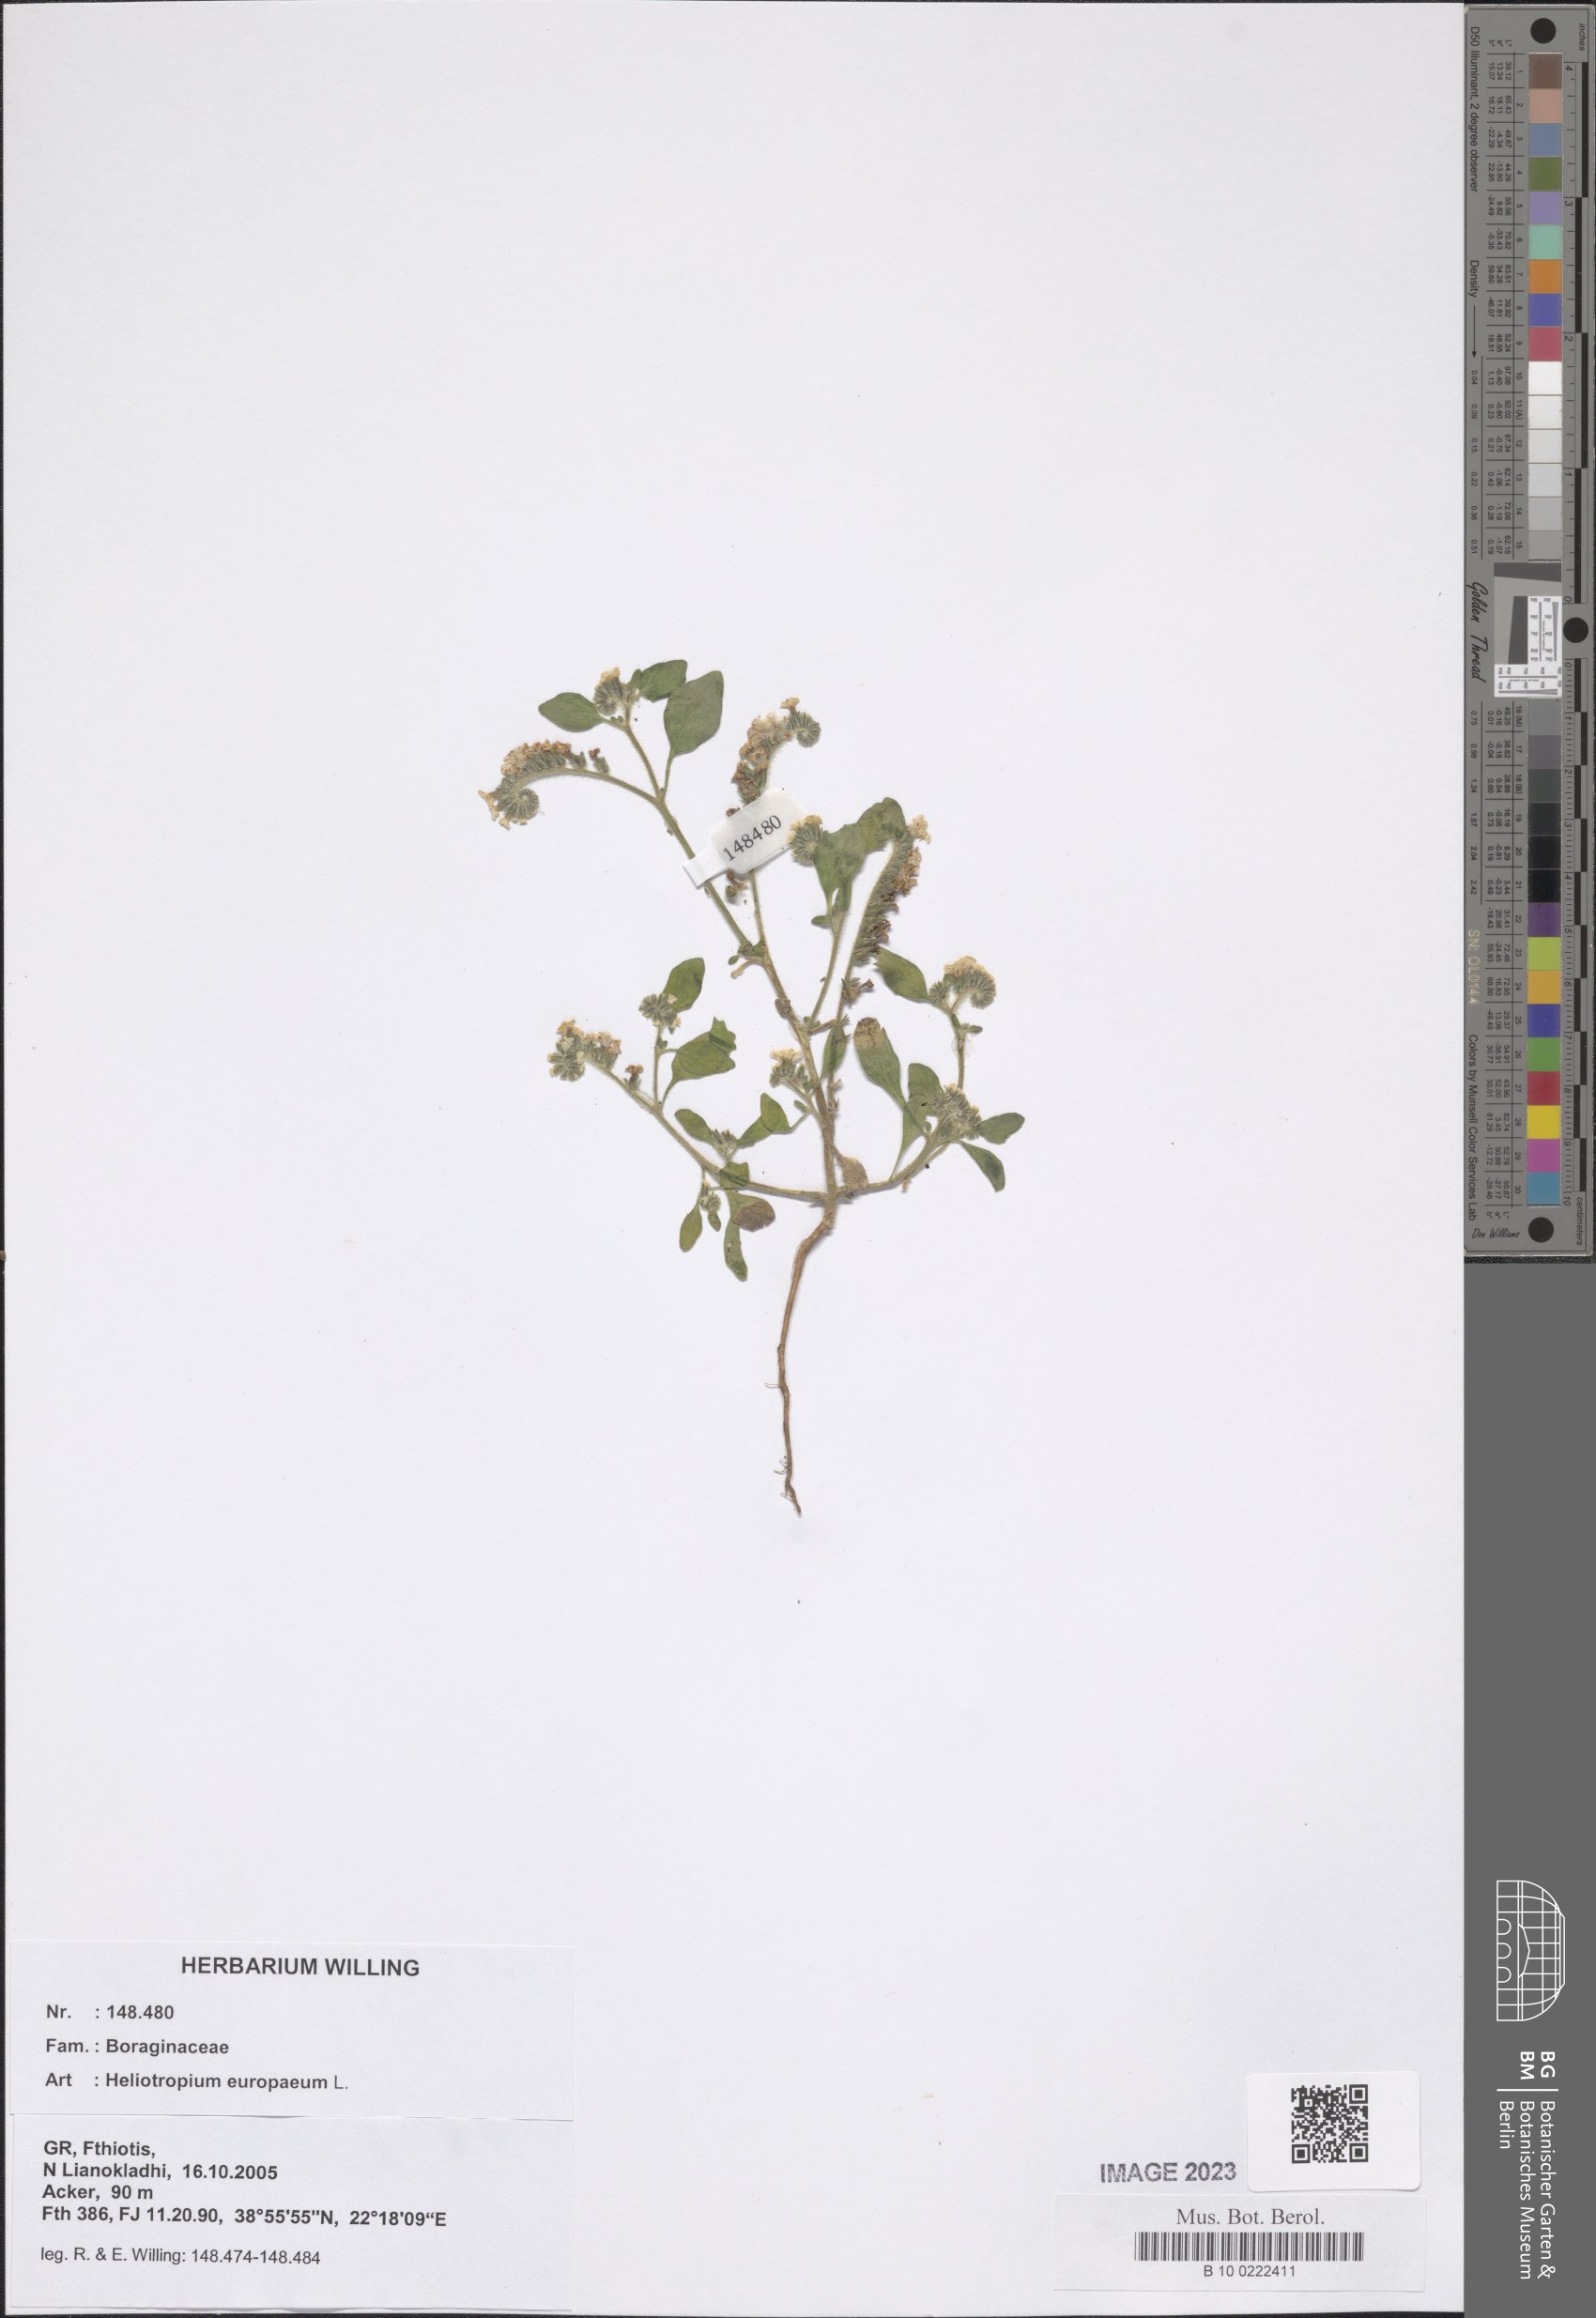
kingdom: Plantae
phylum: Tracheophyta
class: Magnoliopsida
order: Boraginales
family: Heliotropiaceae
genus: Heliotropium
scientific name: Heliotropium europaeum
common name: European heliotrope
